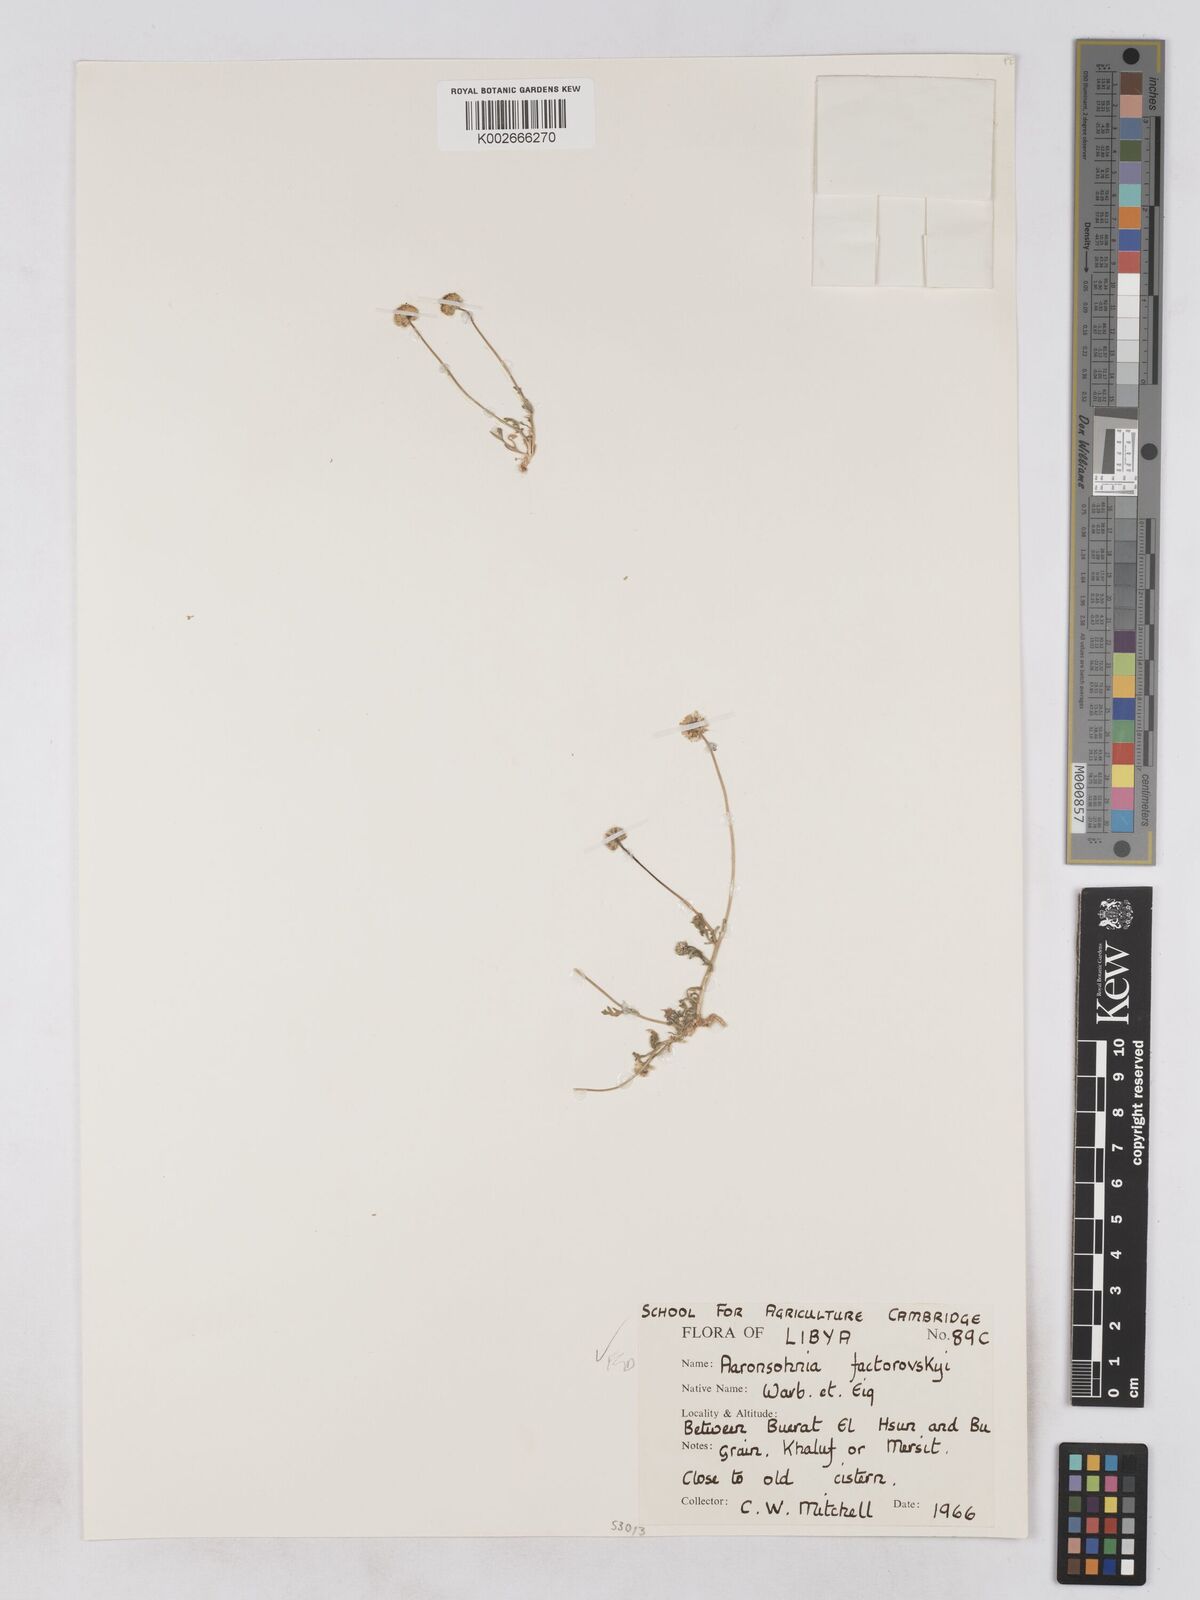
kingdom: Plantae
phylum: Tracheophyta
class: Magnoliopsida
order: Asterales
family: Asteraceae
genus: Otoglyphis
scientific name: Otoglyphis factorovskyi
